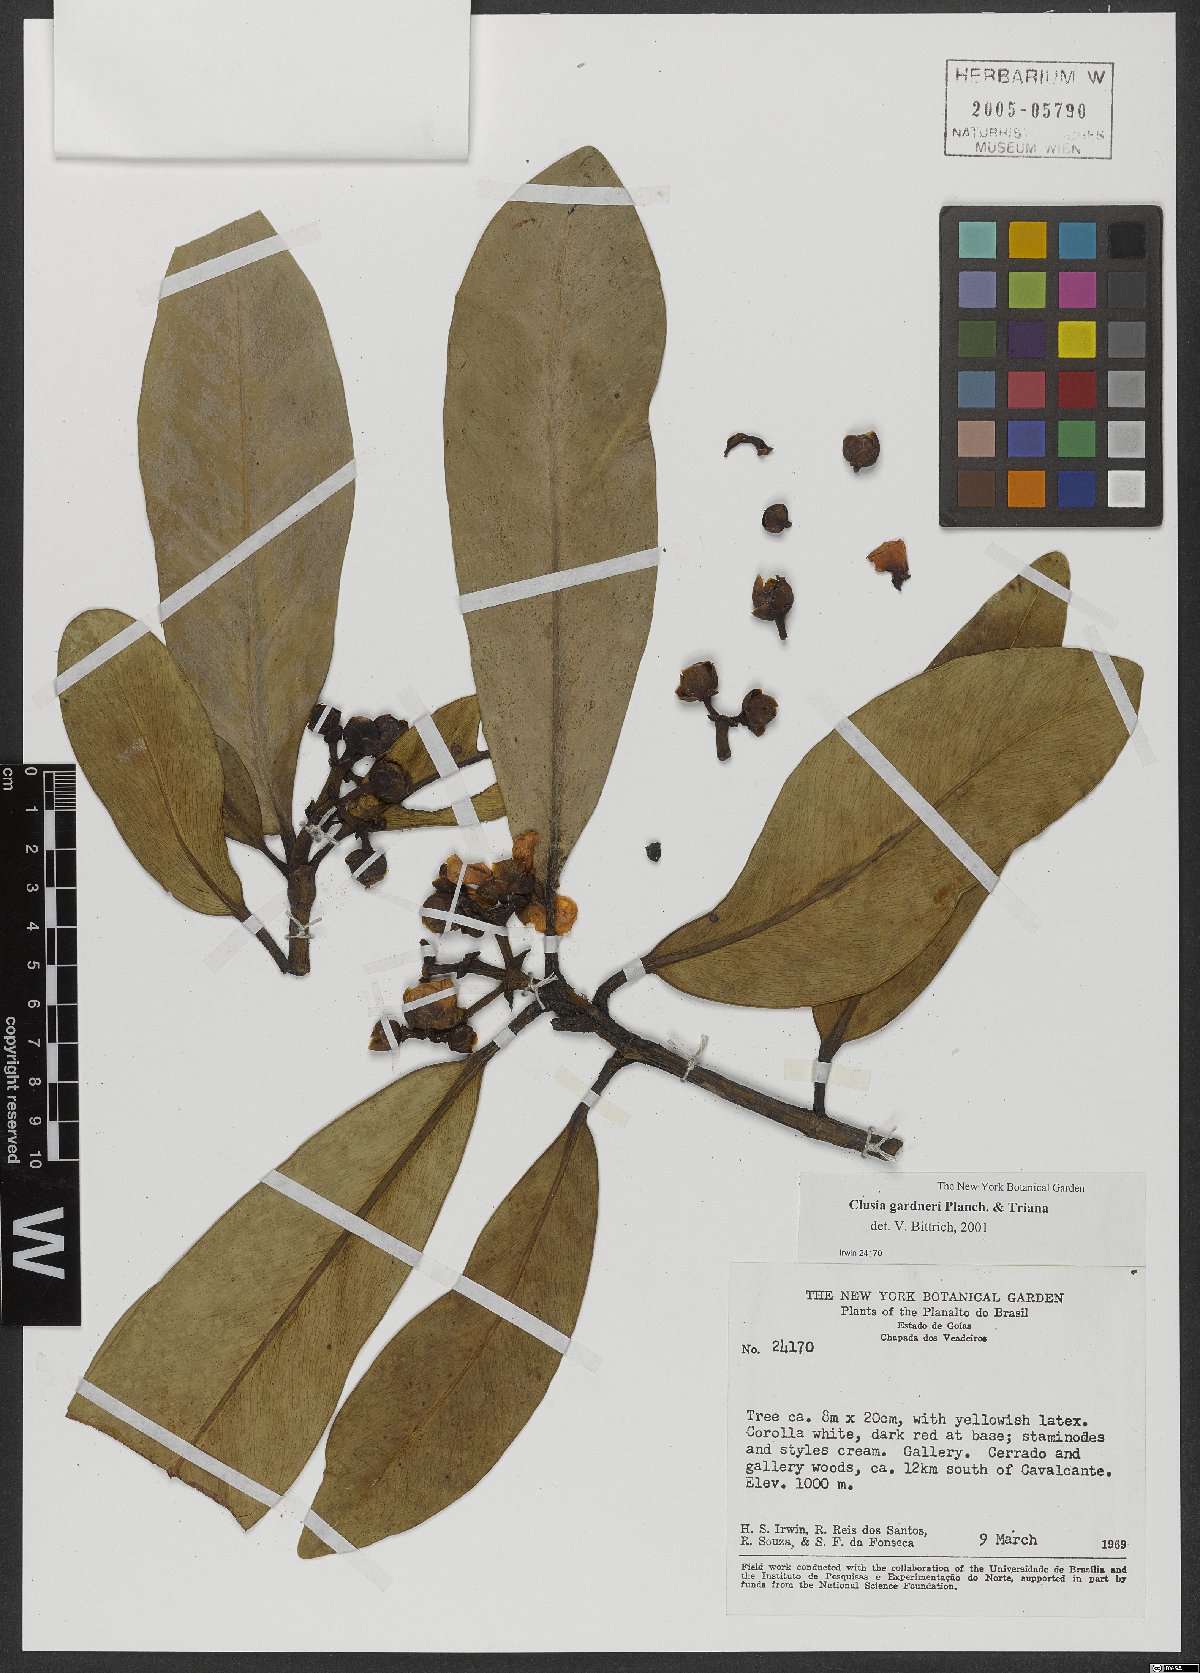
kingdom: Plantae
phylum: Tracheophyta
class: Magnoliopsida
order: Malpighiales
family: Clusiaceae
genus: Clusia
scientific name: Clusia gardneri
